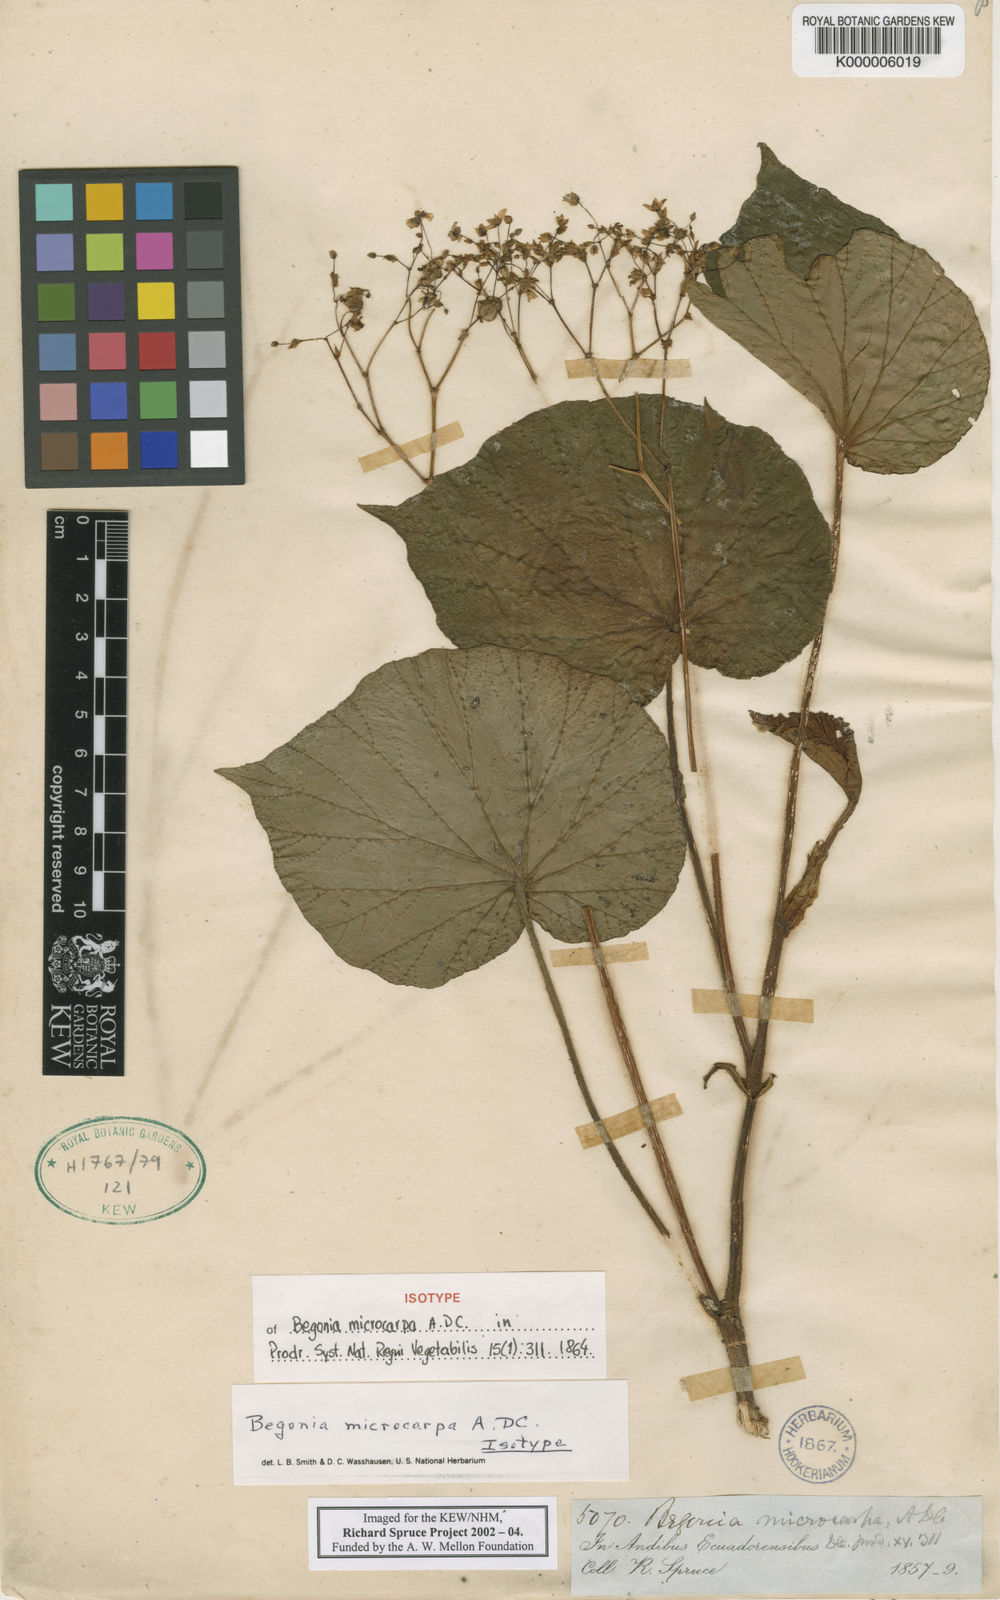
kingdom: Plantae
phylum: Tracheophyta
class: Magnoliopsida
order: Cucurbitales
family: Begoniaceae
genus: Begonia
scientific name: Begonia microcarpa
